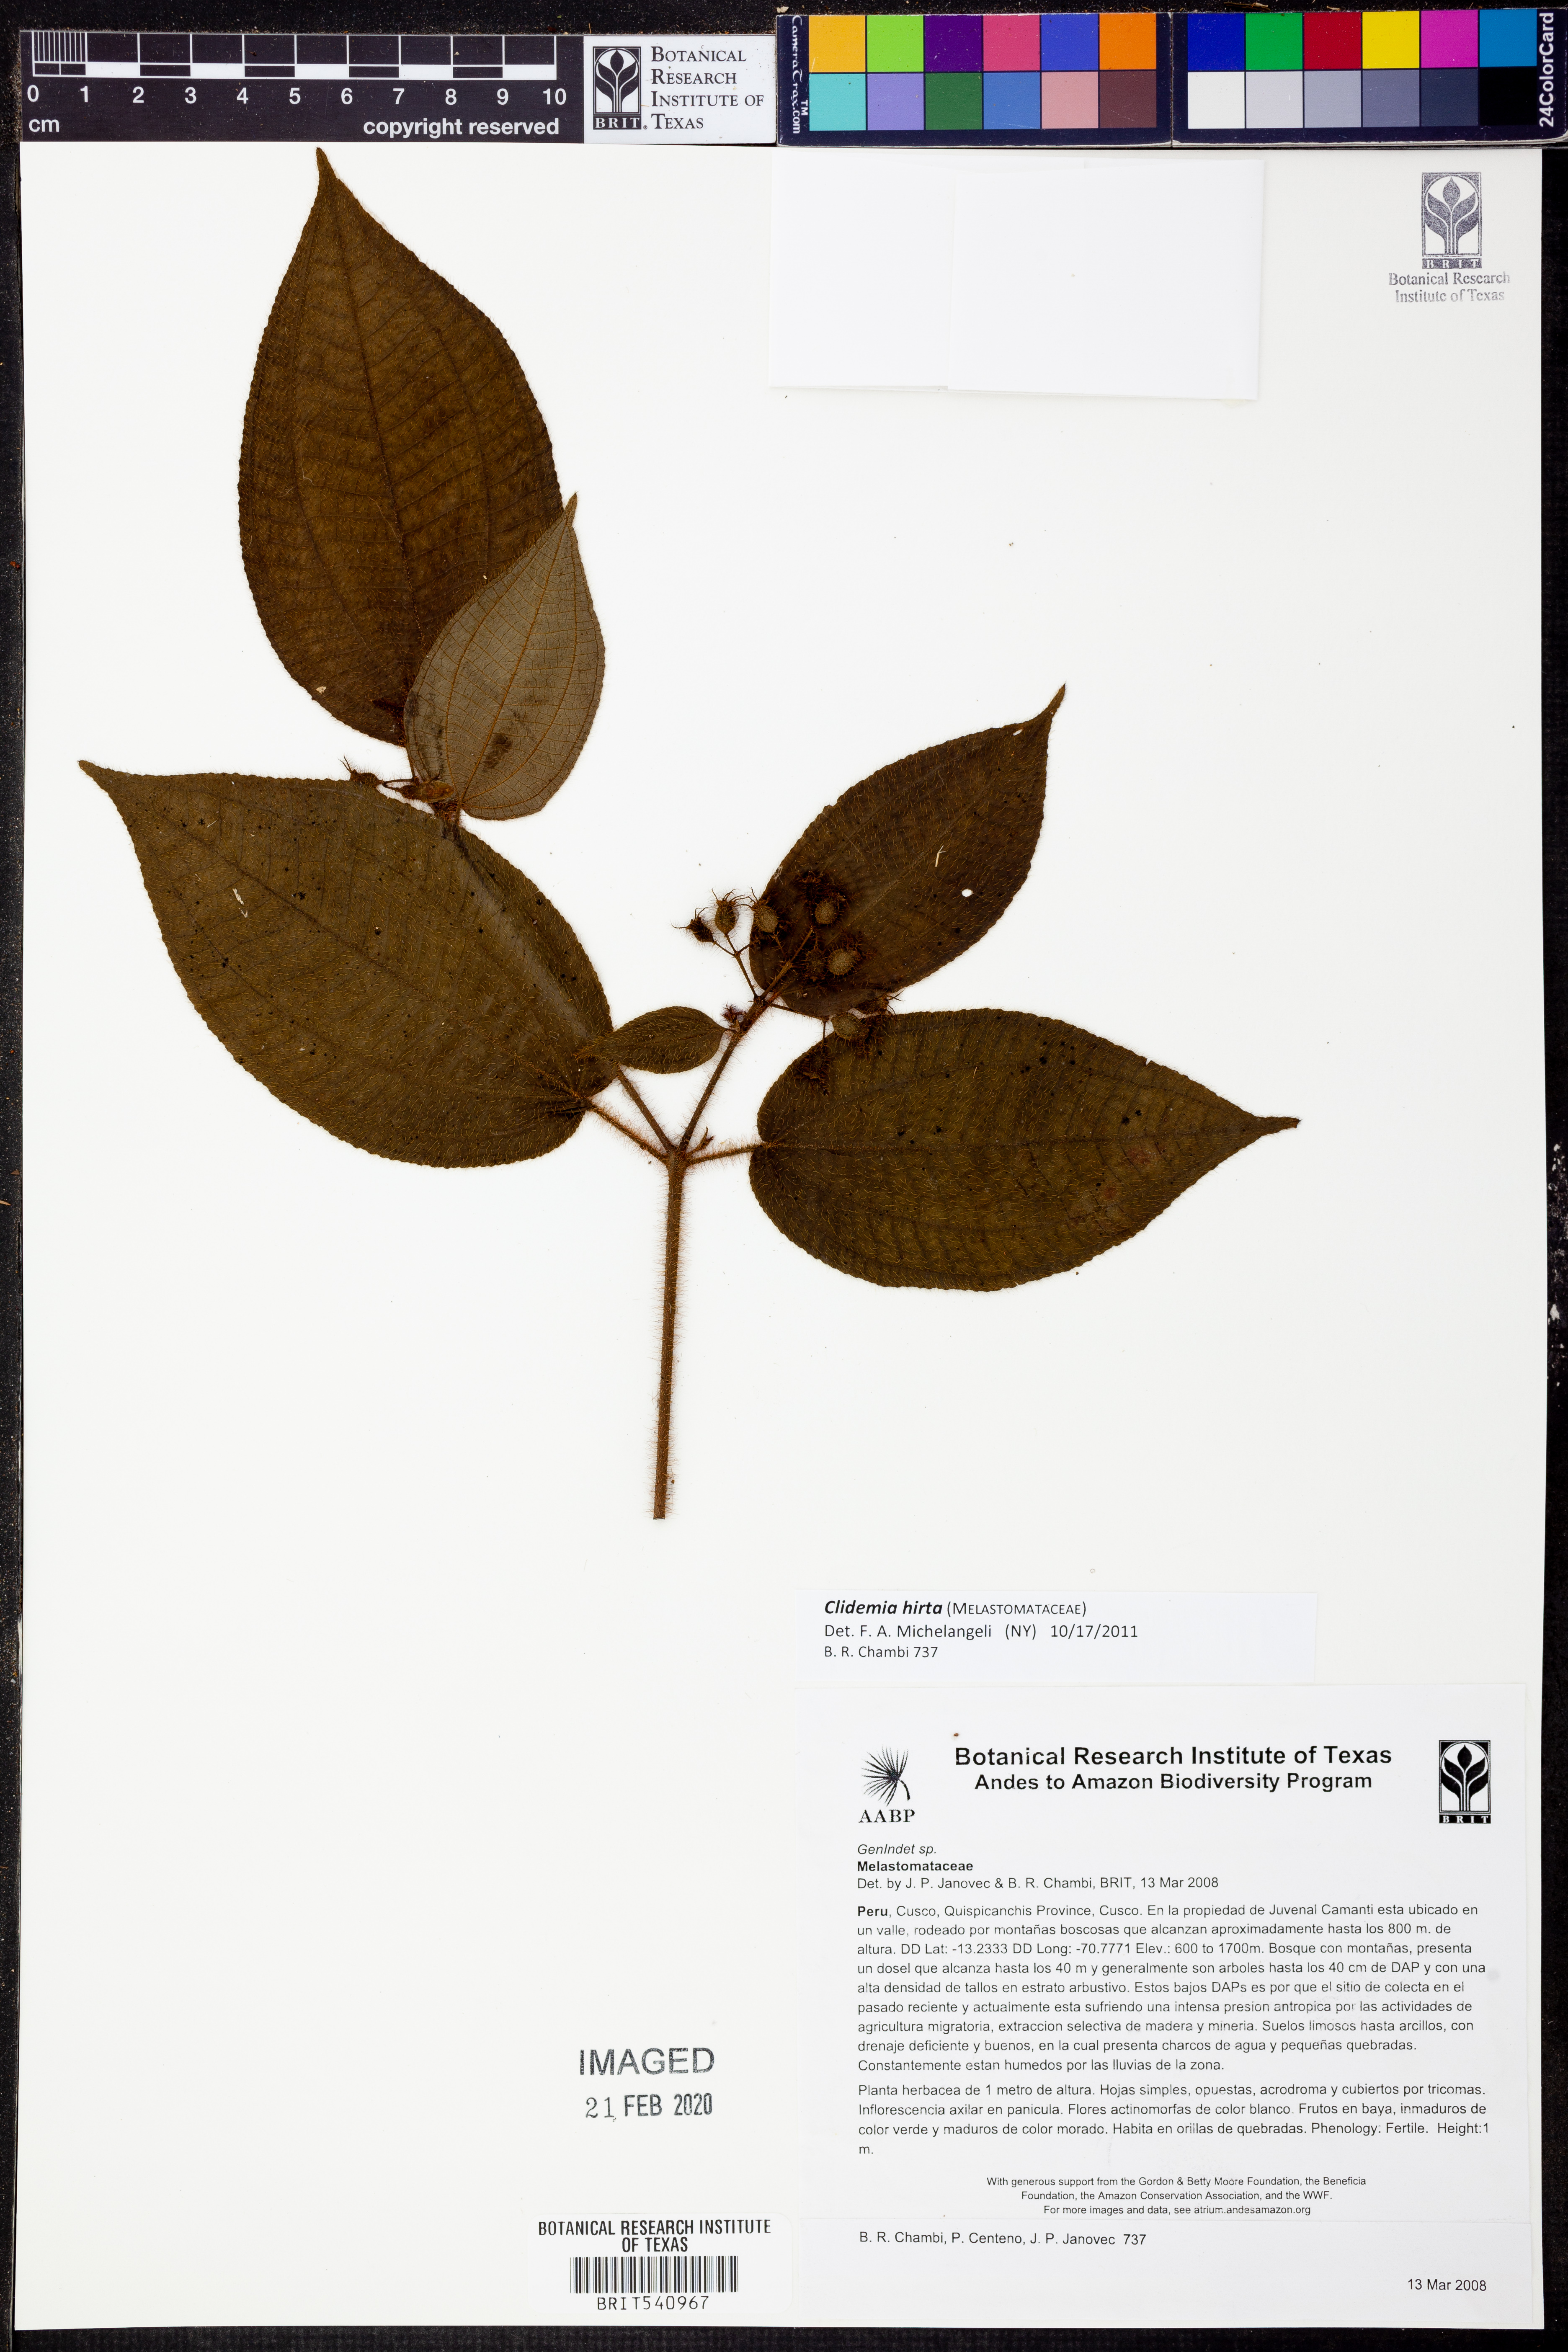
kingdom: Plantae
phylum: Tracheophyta
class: Magnoliopsida
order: Myrtales
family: Melastomataceae
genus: Miconia
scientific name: Miconia crenata
